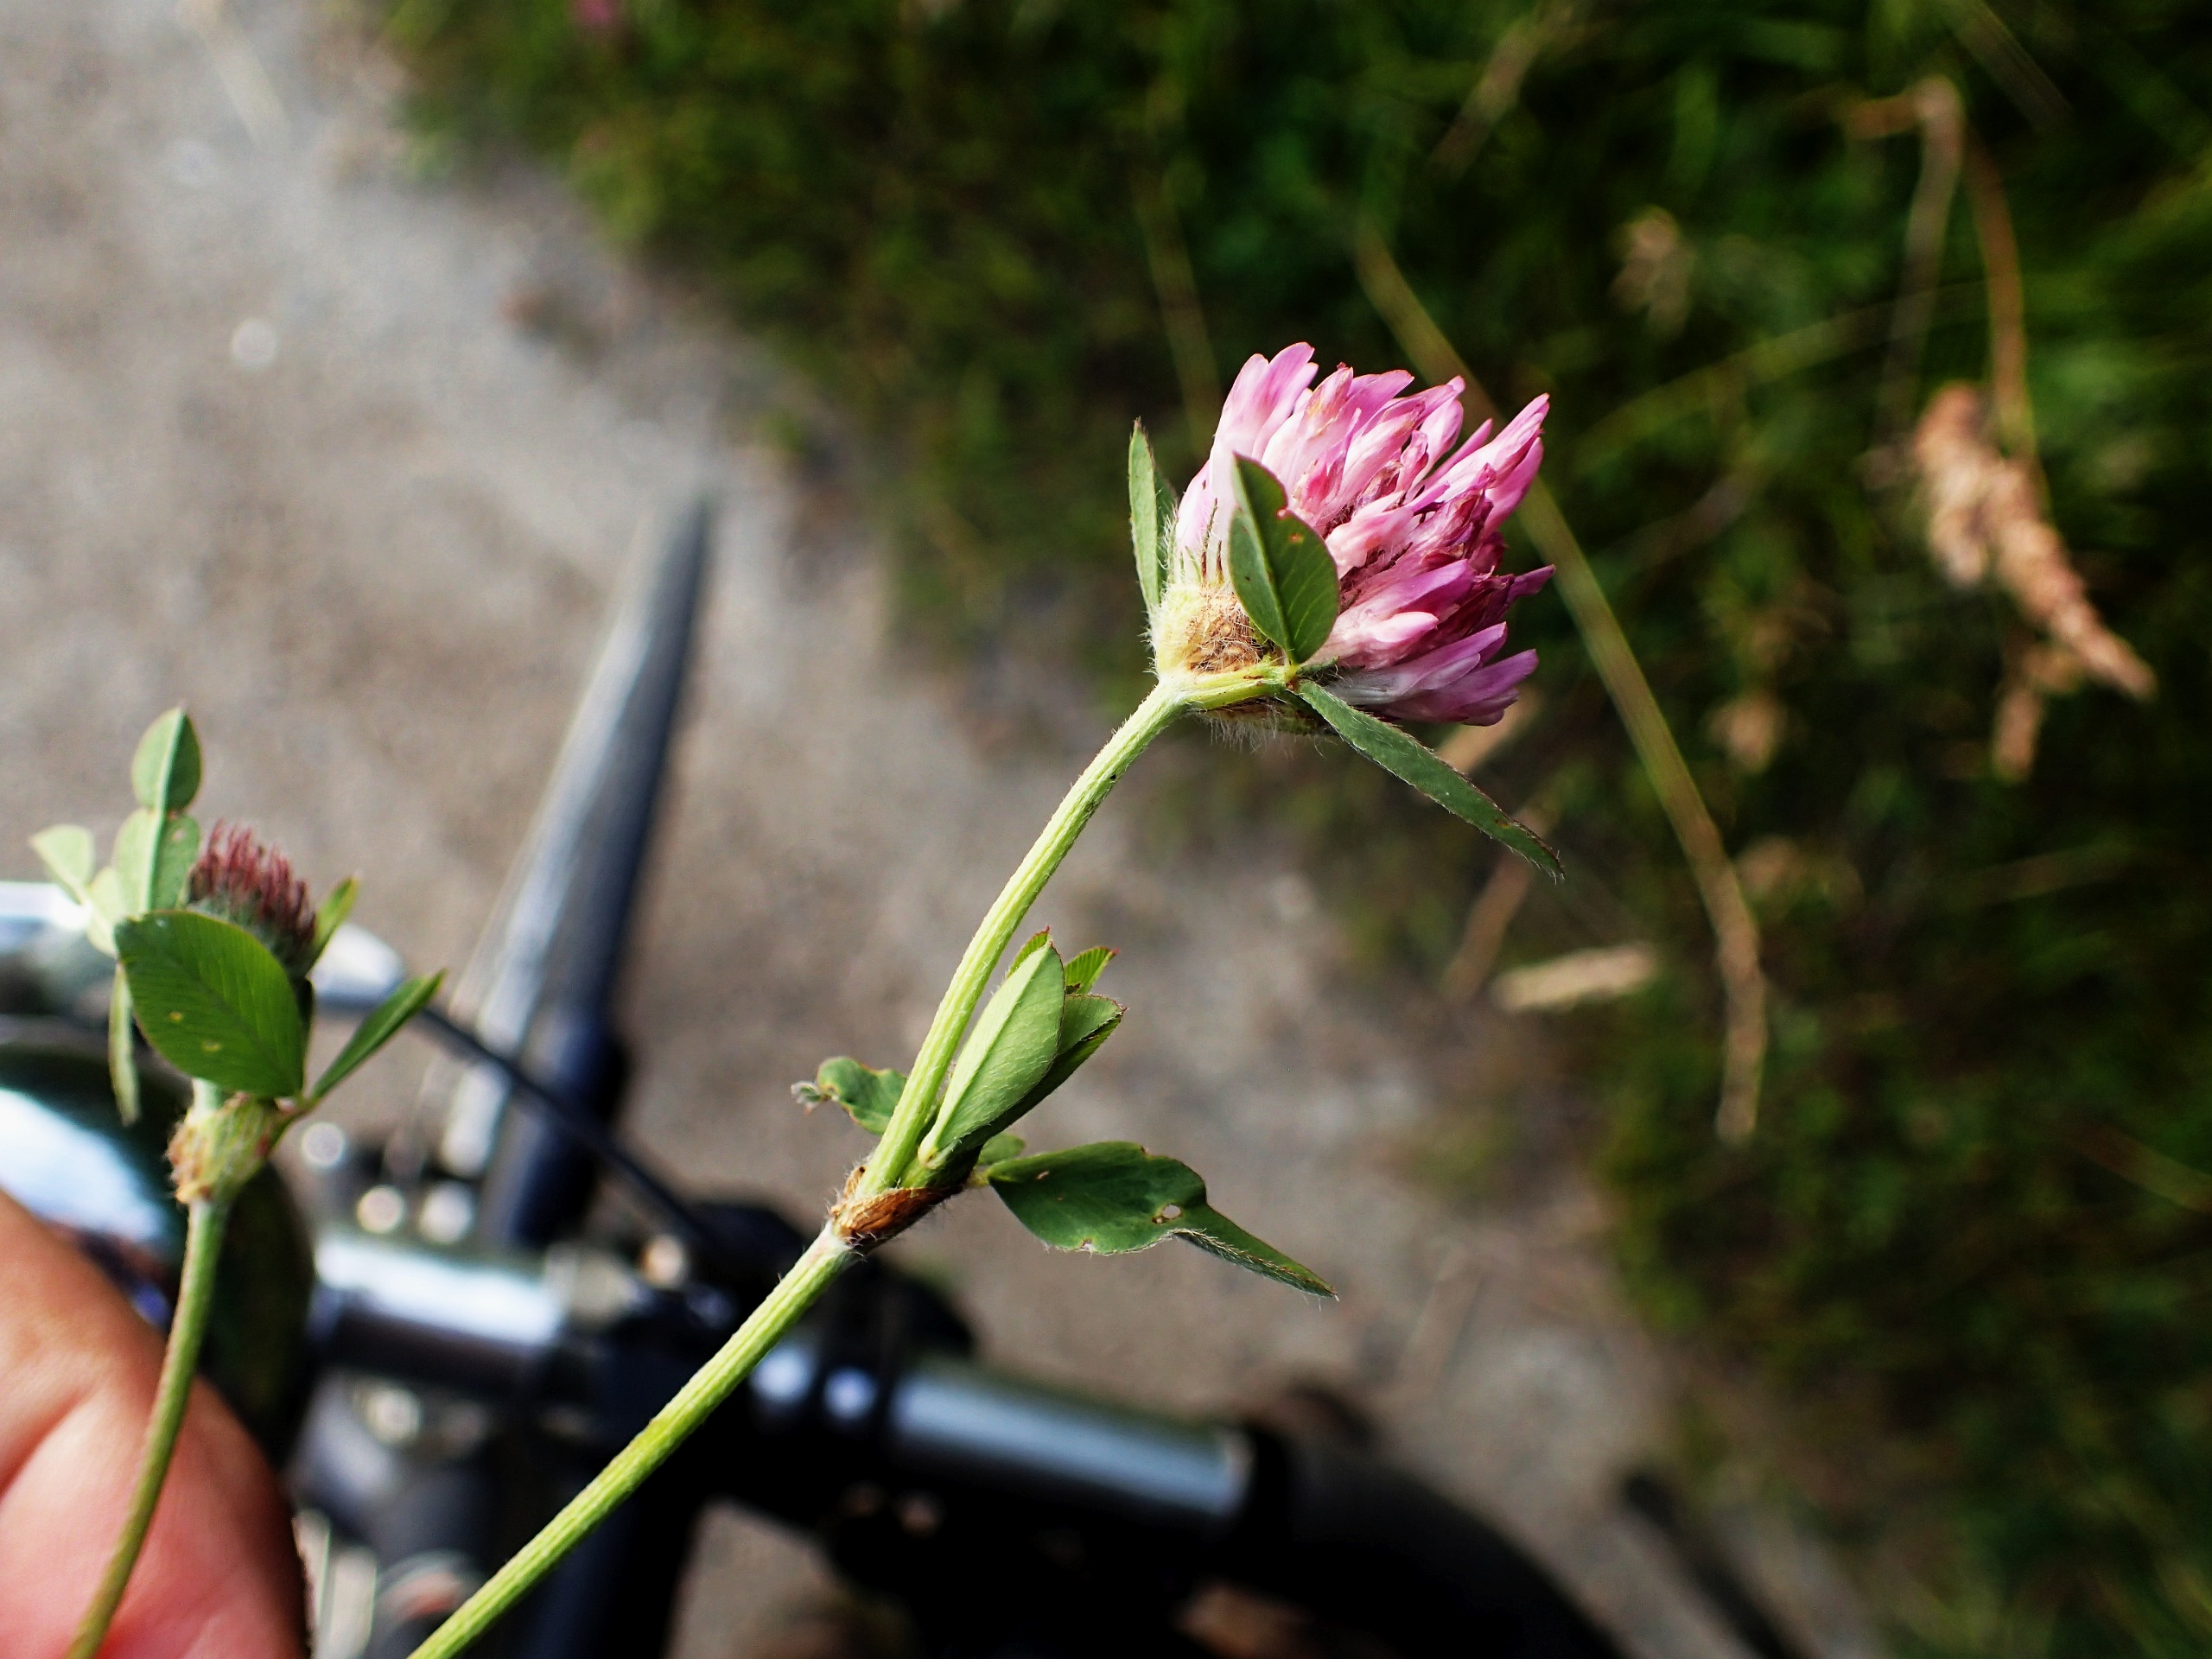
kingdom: Plantae
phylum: Tracheophyta
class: Magnoliopsida
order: Fabales
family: Fabaceae
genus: Trifolium
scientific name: Trifolium pratense
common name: Rød-kløver
